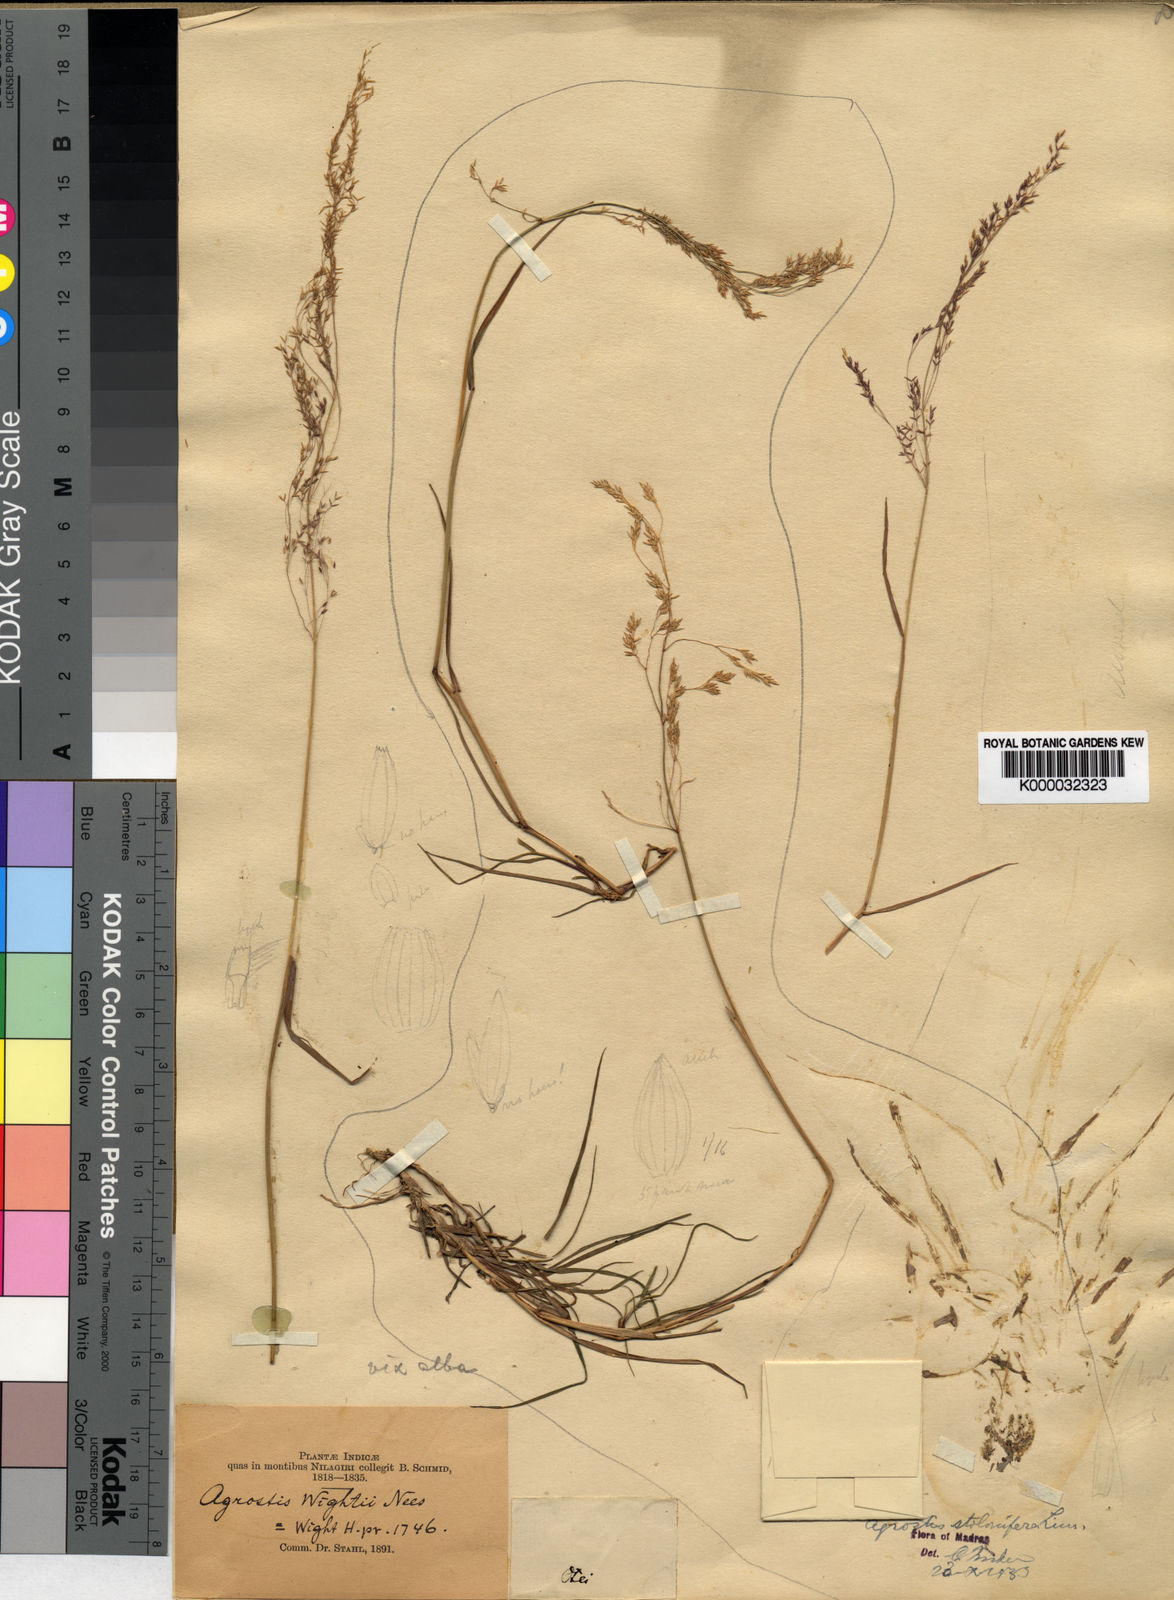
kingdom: Plantae
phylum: Tracheophyta
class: Liliopsida
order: Poales
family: Poaceae
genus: Agrostis
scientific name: Agrostis gigantea
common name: Black bent
